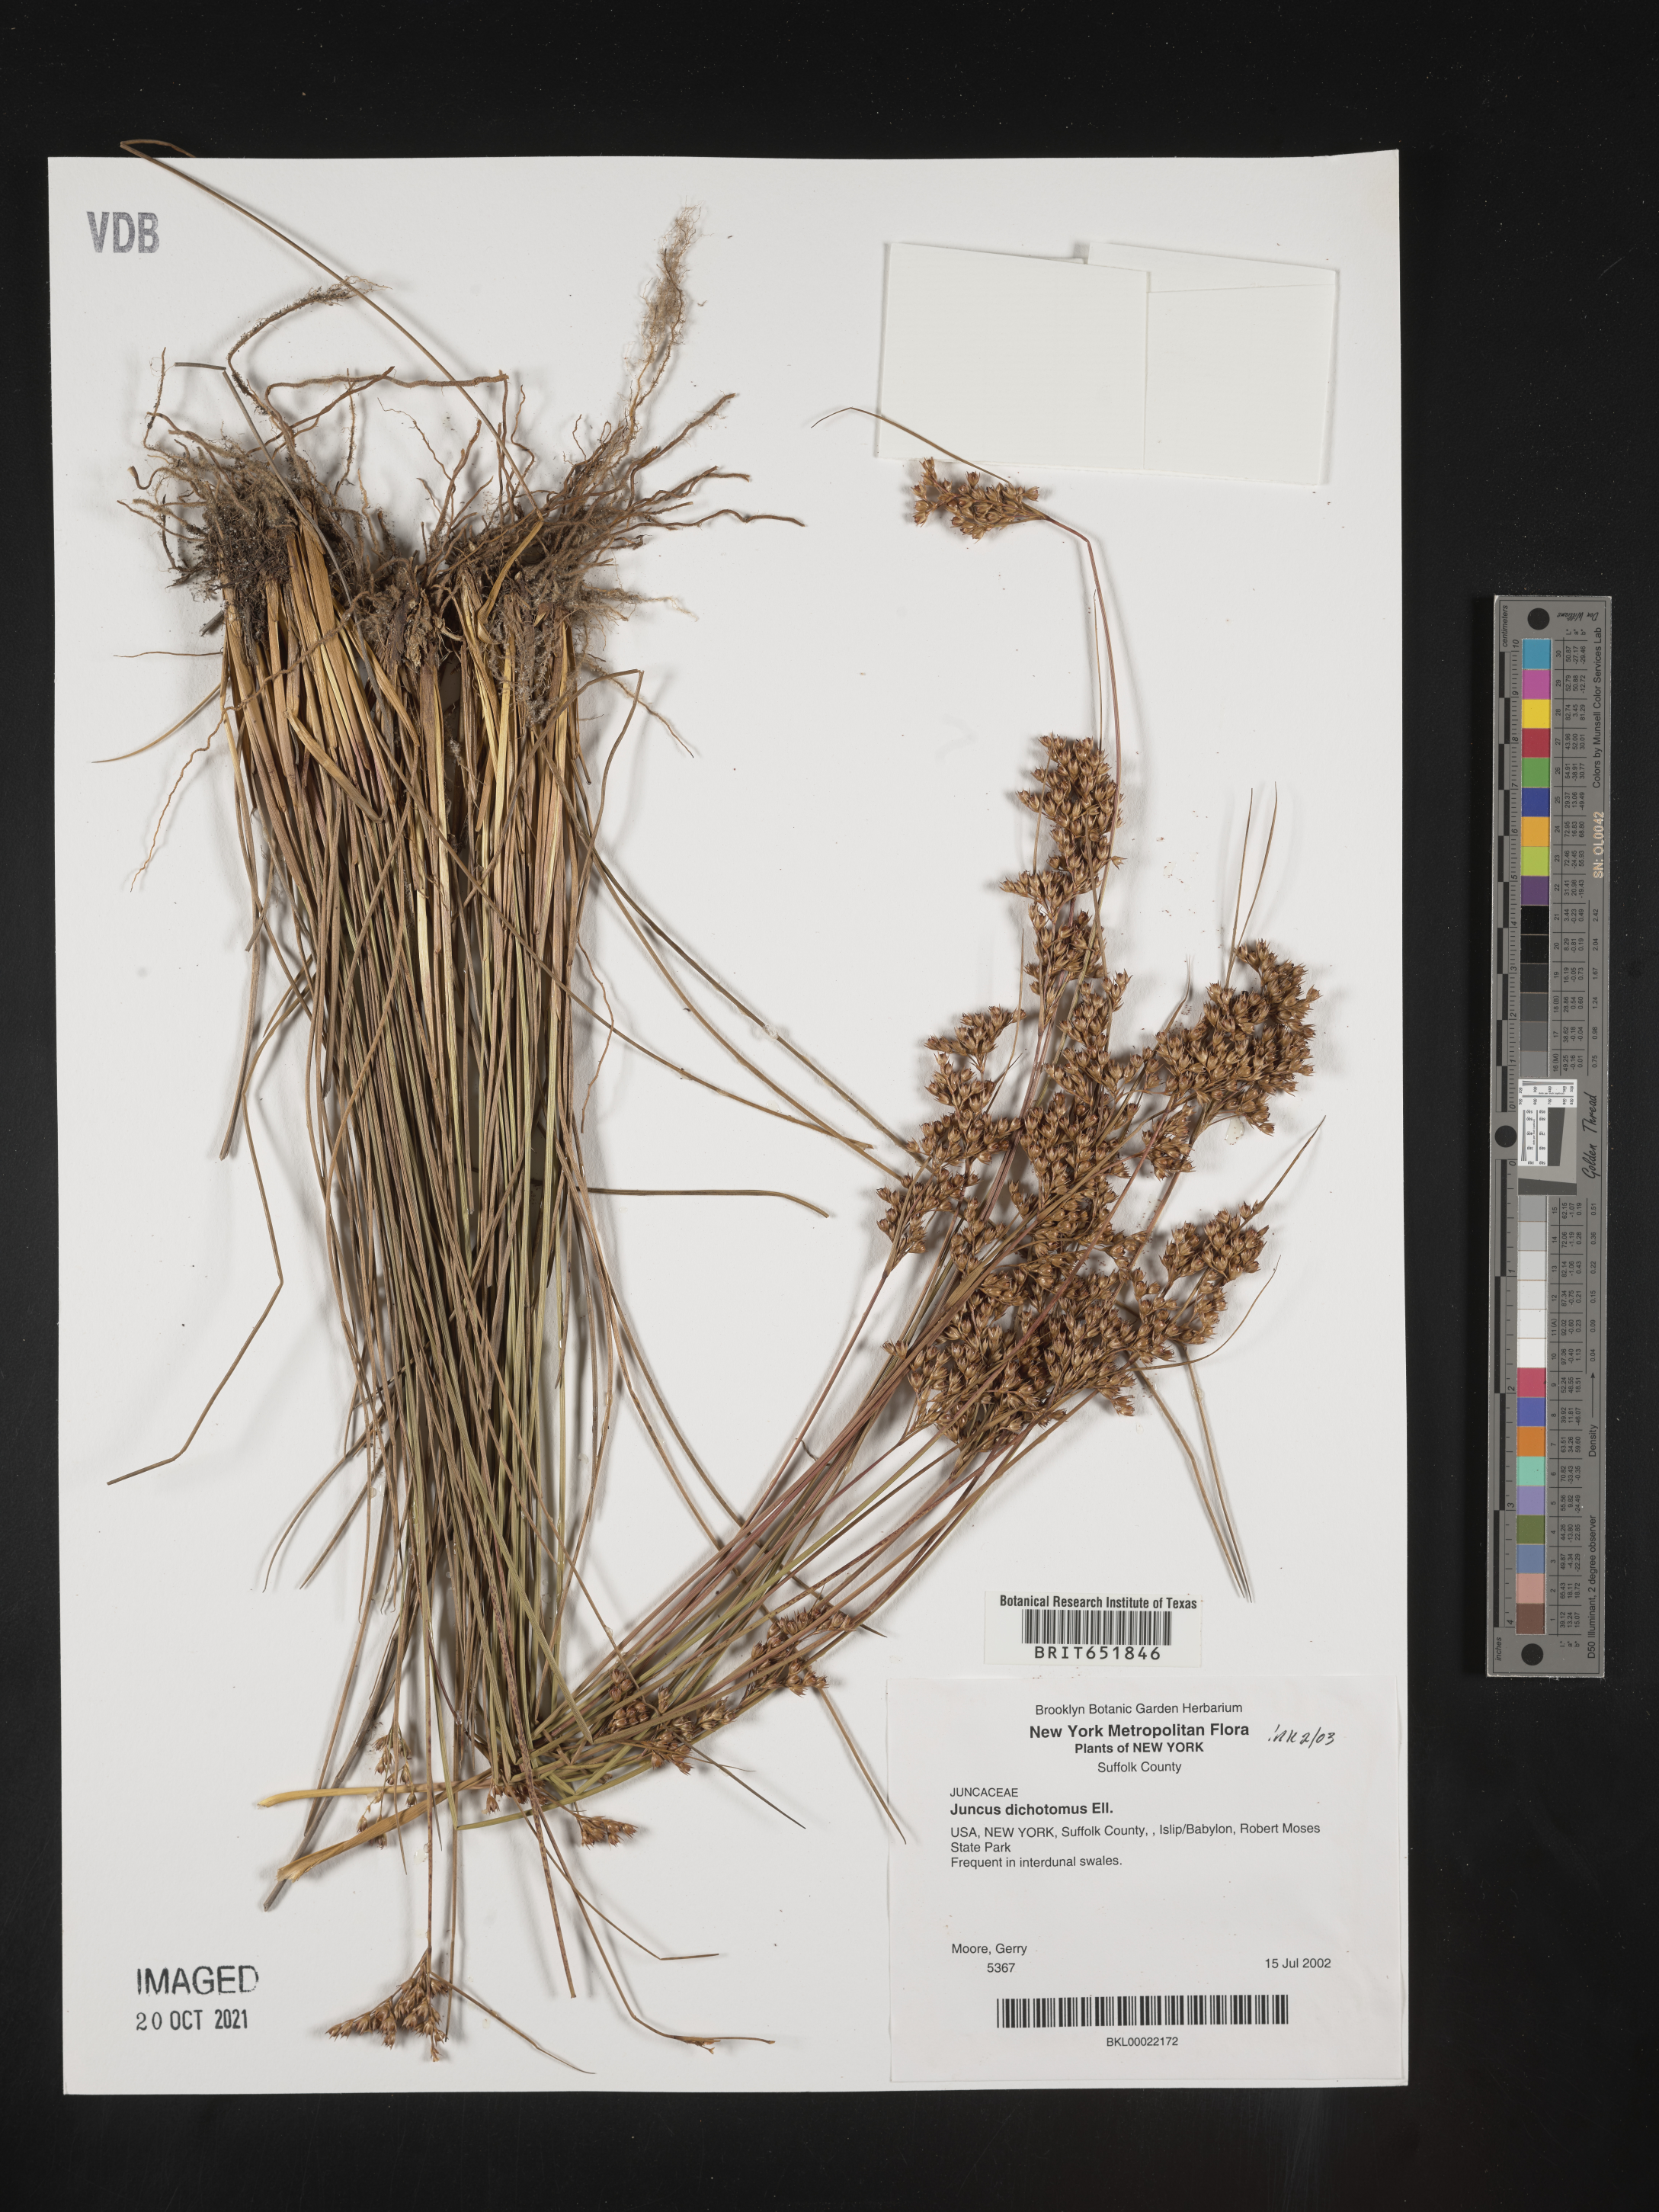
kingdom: Plantae
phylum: Tracheophyta
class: Liliopsida
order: Poales
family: Juncaceae
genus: Juncus
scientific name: Juncus dichotomus
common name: Forked rush
